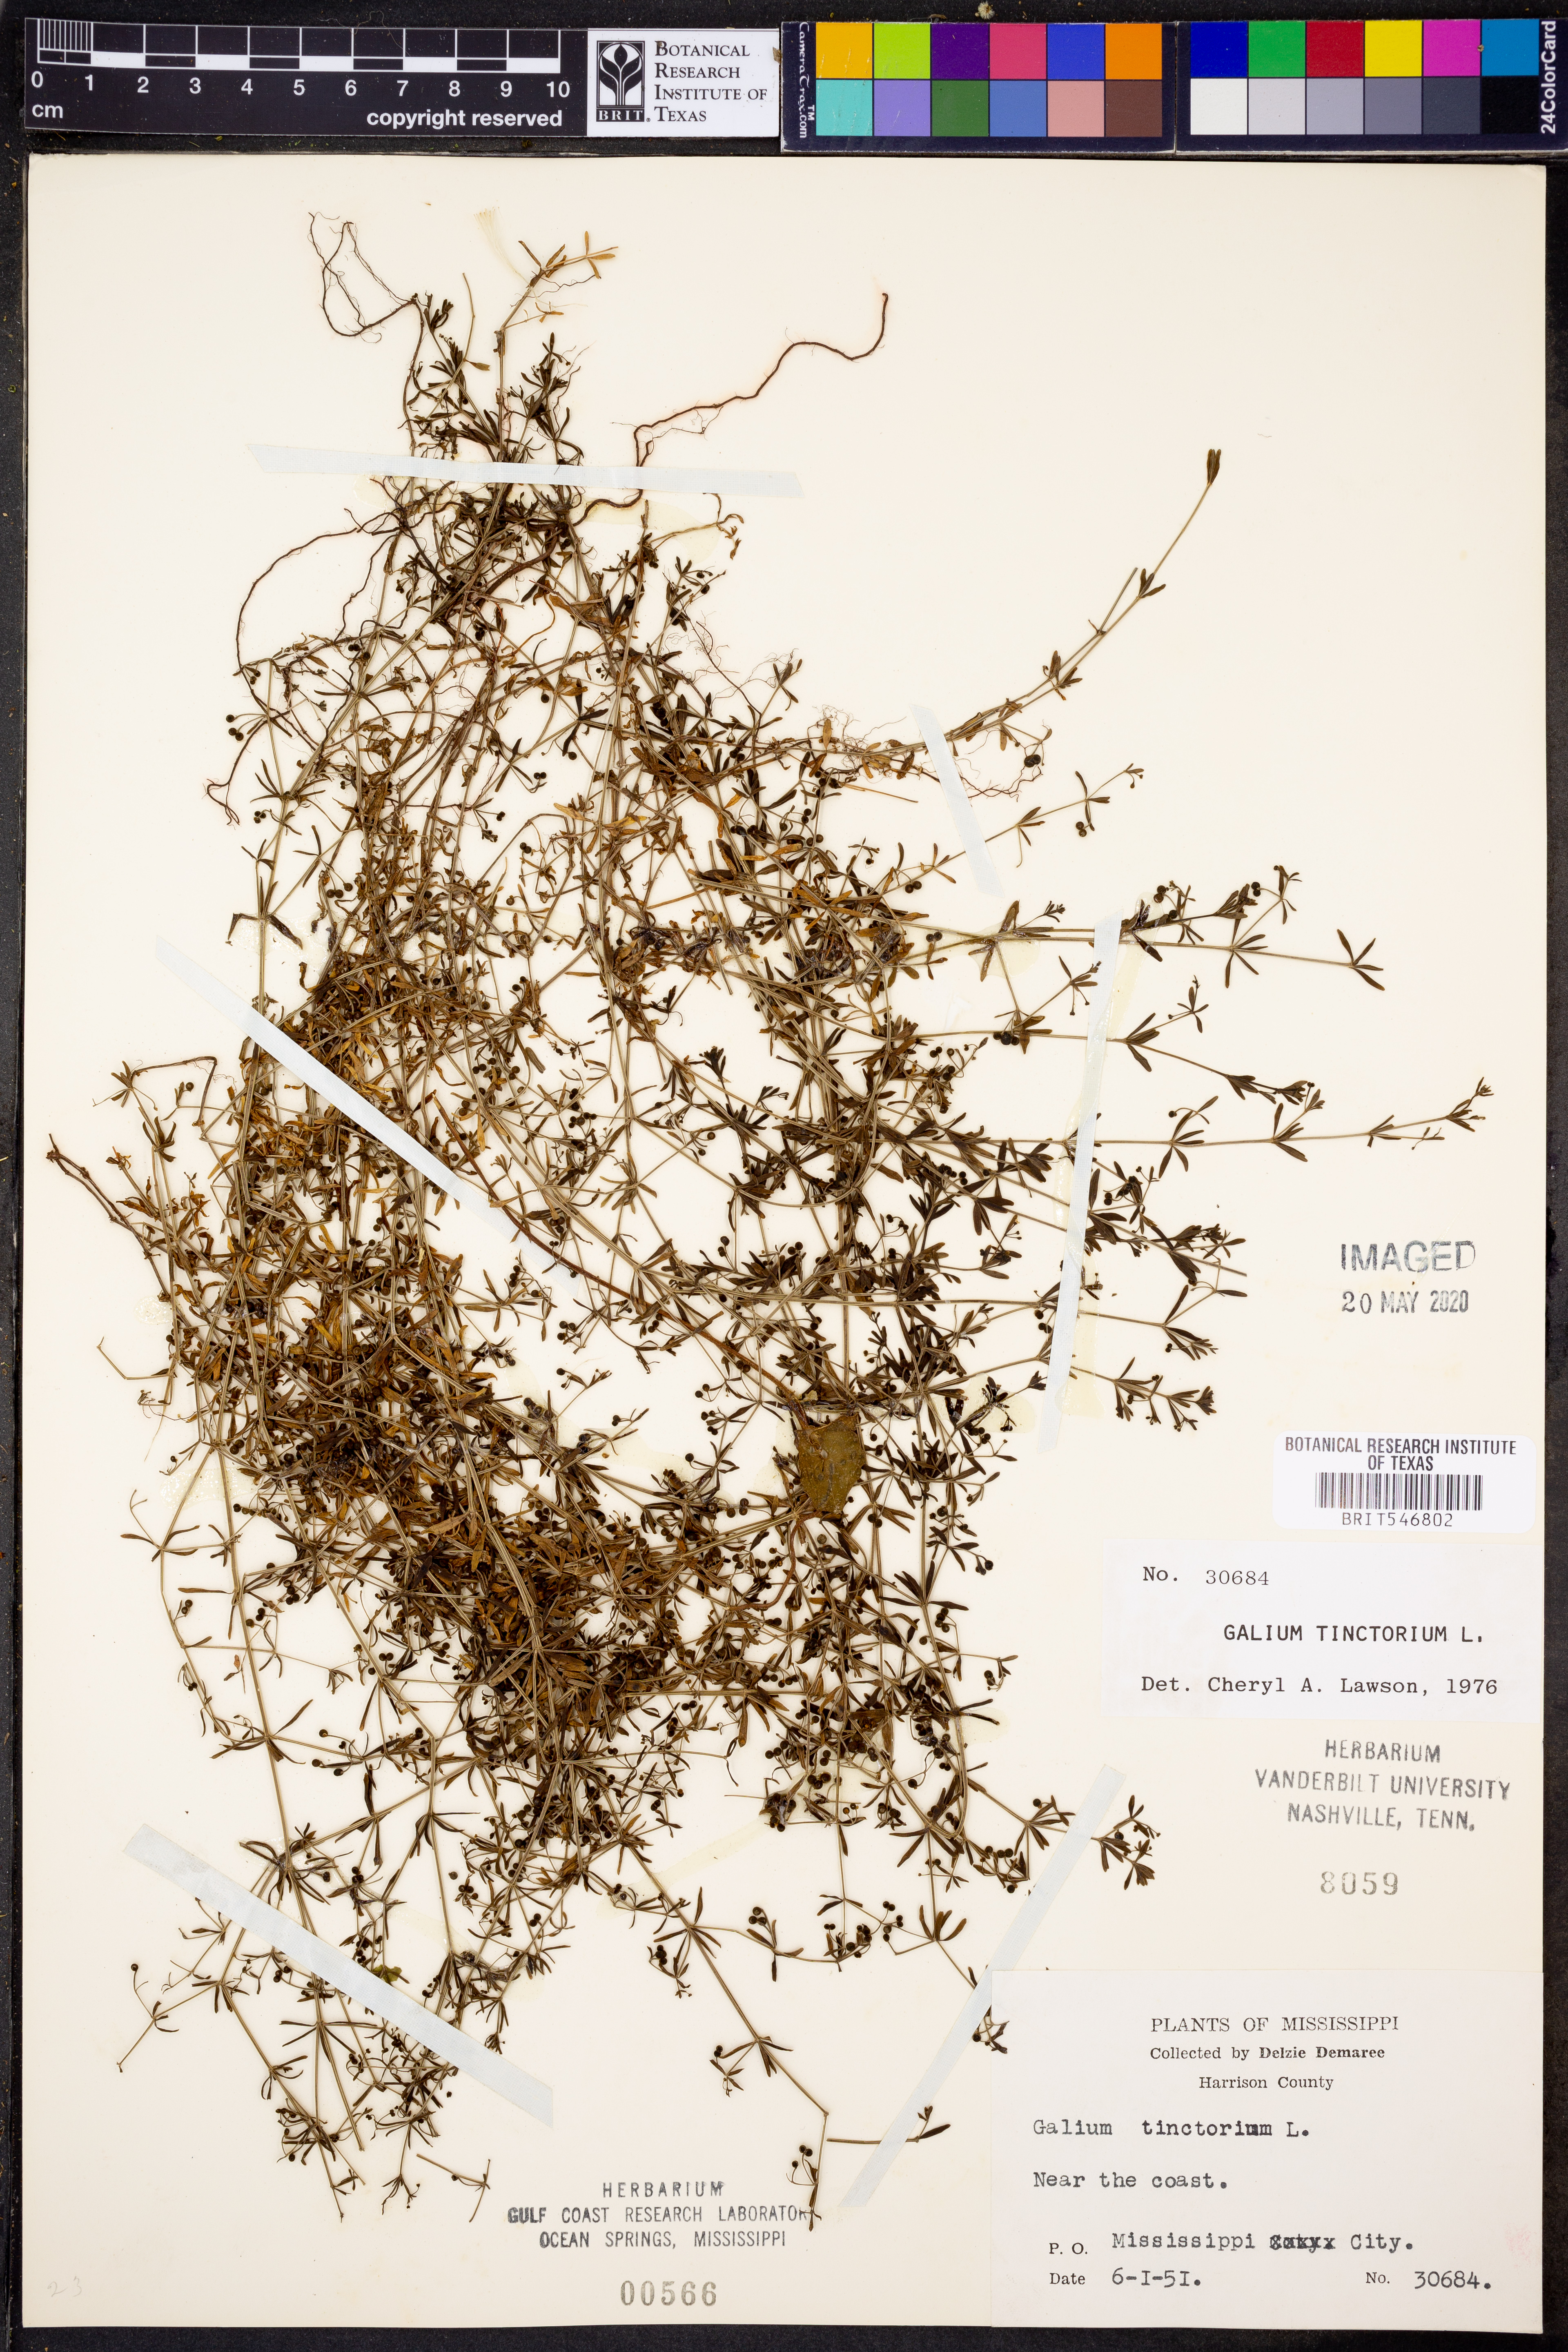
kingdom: Plantae
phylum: Tracheophyta
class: Magnoliopsida
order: Gentianales
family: Rubiaceae
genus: Asperula
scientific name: Asperula tinctoria
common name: Dyer's woodruff
